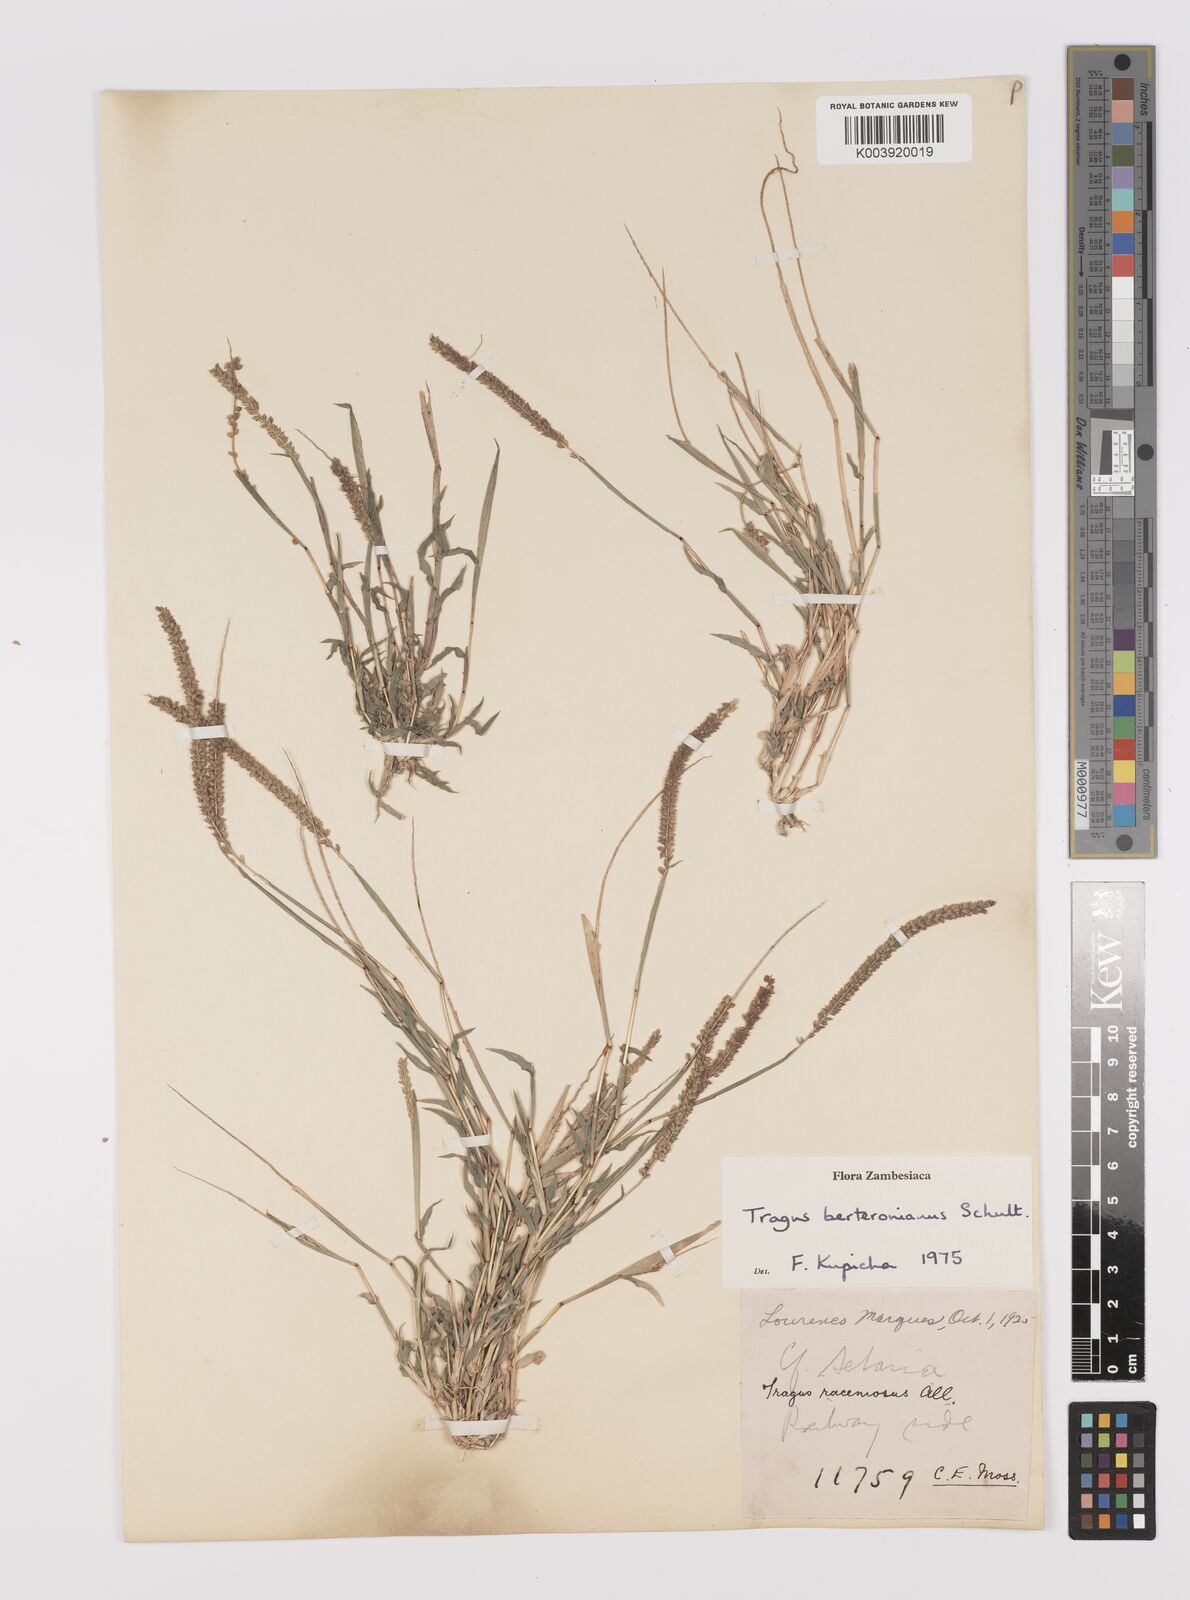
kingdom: Plantae
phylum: Tracheophyta
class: Liliopsida
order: Poales
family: Poaceae
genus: Tragus
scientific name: Tragus berteronianus
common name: African bur-grass
